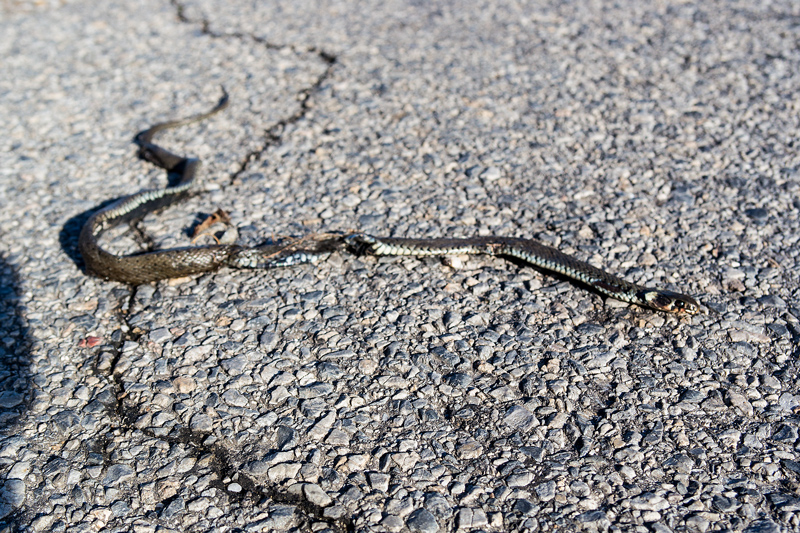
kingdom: Animalia
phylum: Chordata
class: Squamata
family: Colubridae
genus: Natrix
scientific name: Natrix natrix
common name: Grass snake
